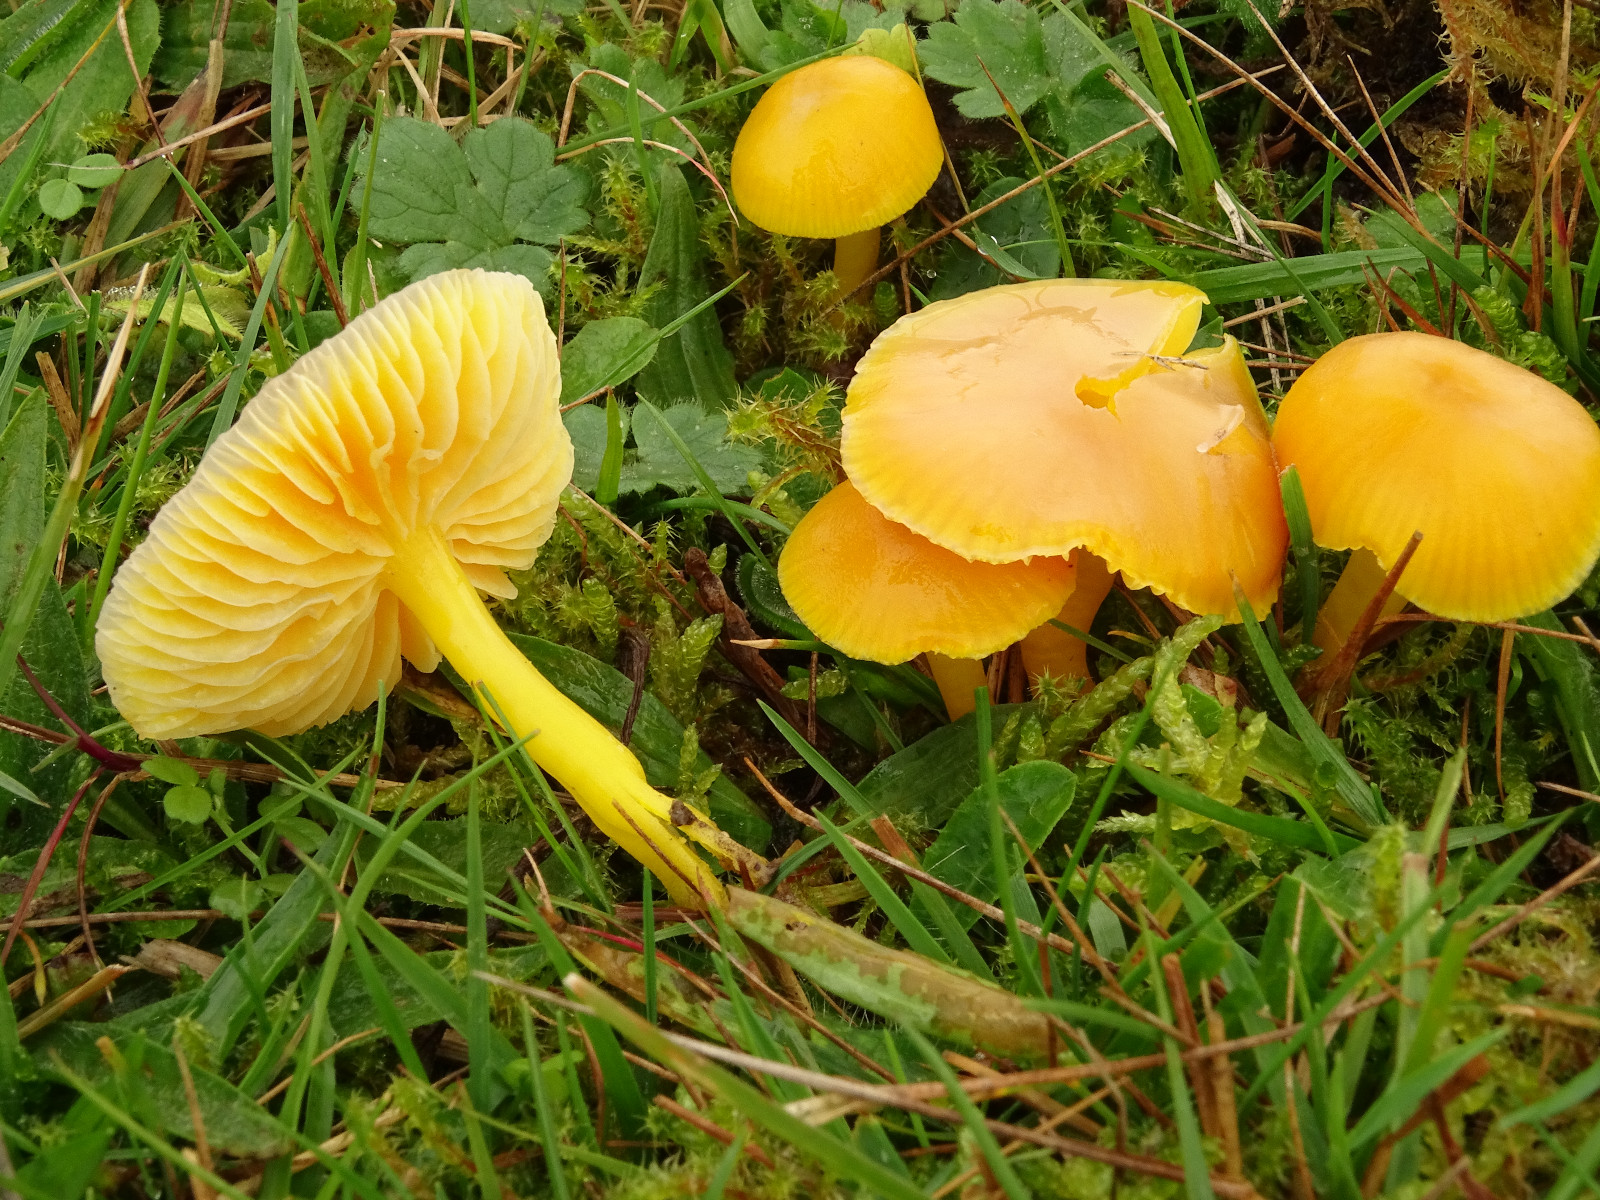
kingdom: Fungi
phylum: Basidiomycota
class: Agaricomycetes
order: Agaricales
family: Hygrophoraceae
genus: Hygrocybe
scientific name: Hygrocybe chlorophana
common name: gul vokshat
